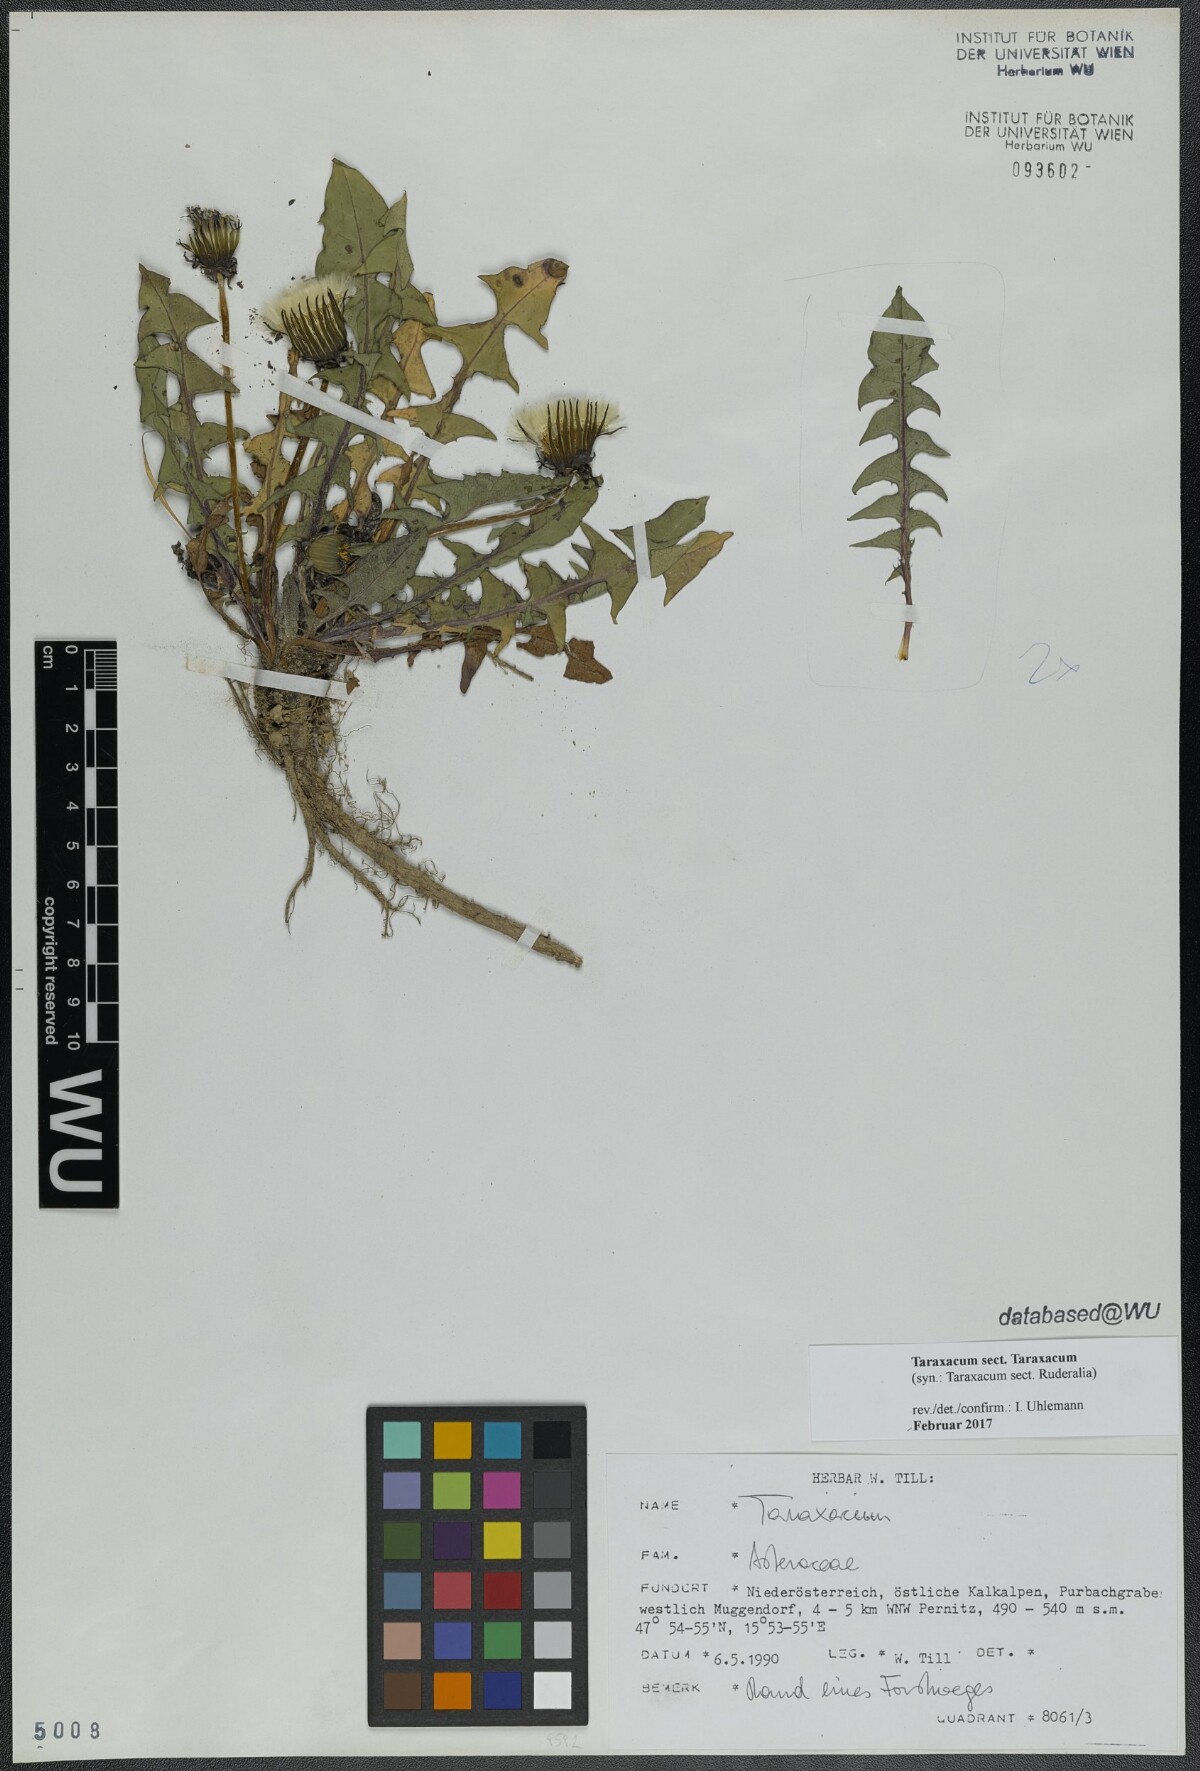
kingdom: Plantae
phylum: Tracheophyta
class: Magnoliopsida
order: Asterales
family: Asteraceae
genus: Taraxacum
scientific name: Taraxacum
